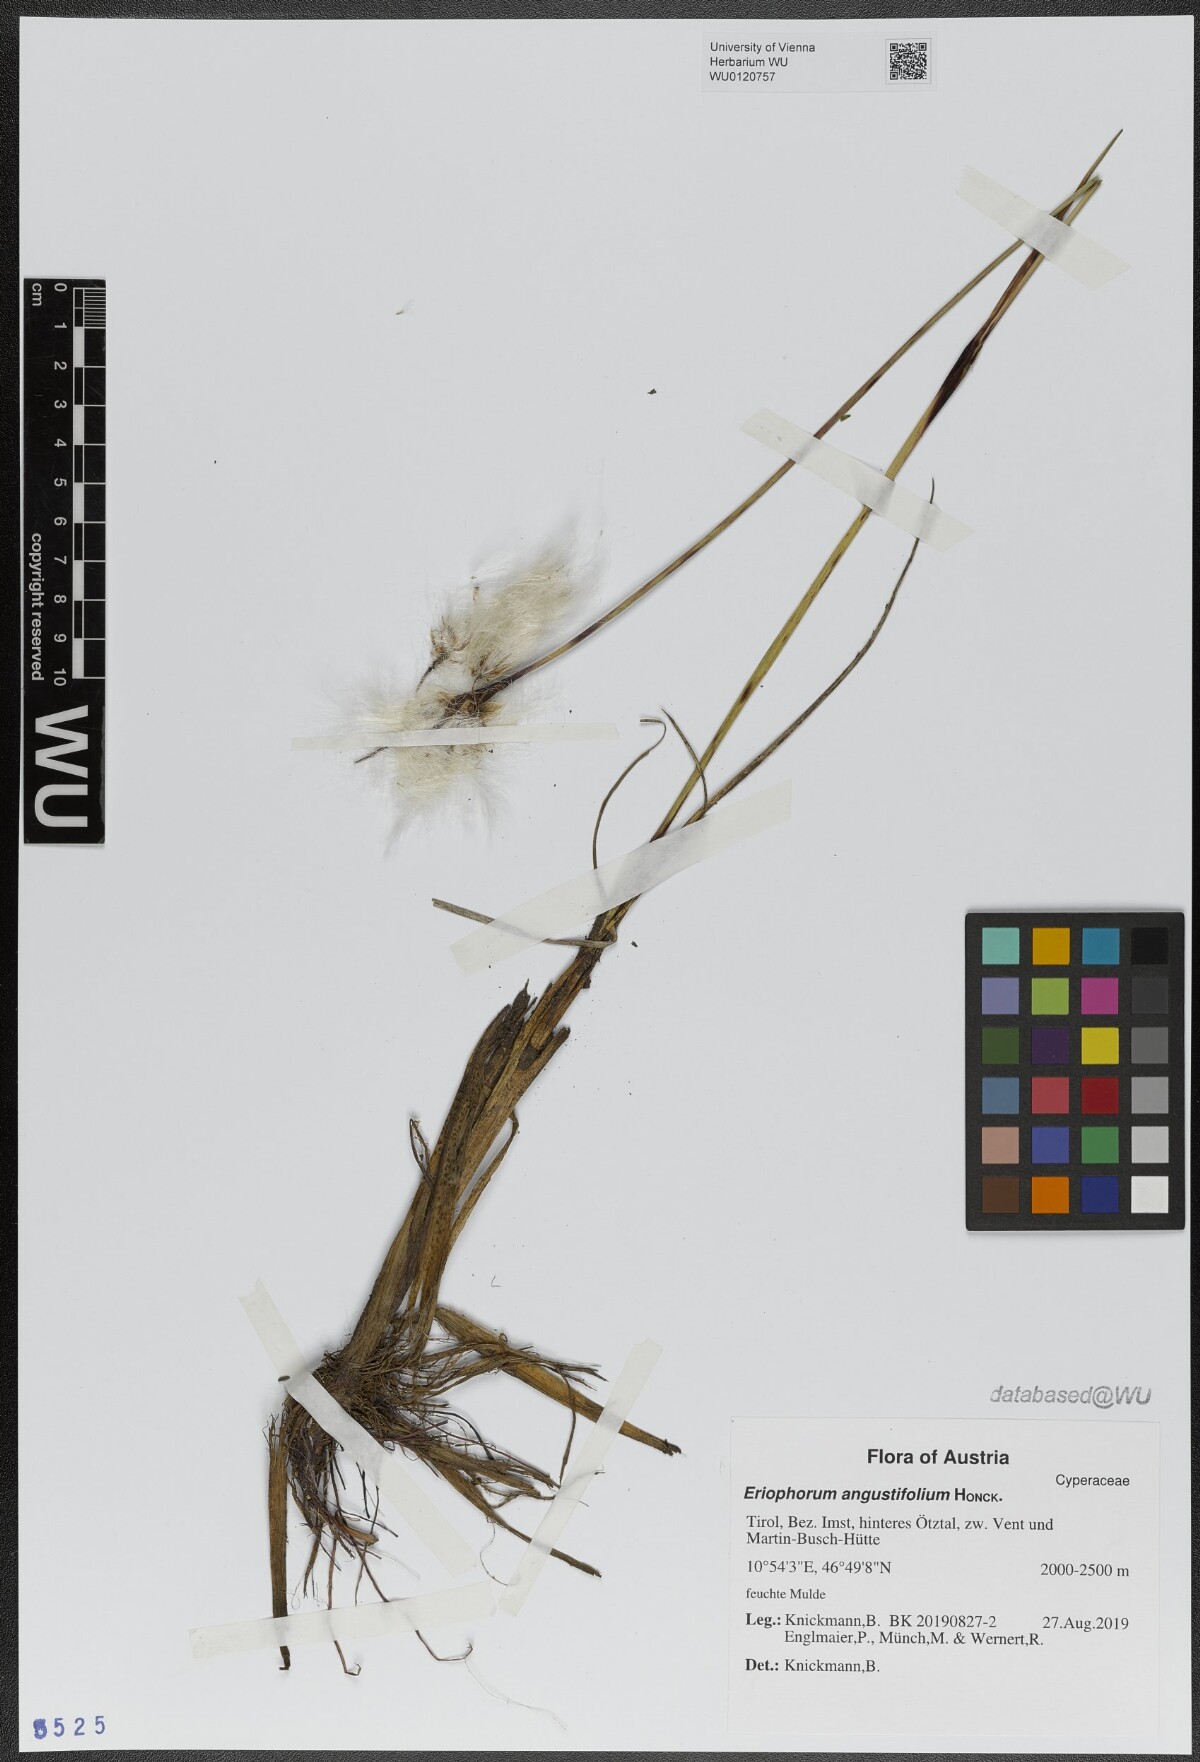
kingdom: Plantae
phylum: Tracheophyta
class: Liliopsida
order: Poales
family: Cyperaceae
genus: Eriophorum
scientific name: Eriophorum angustifolium
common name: Common cottongrass
